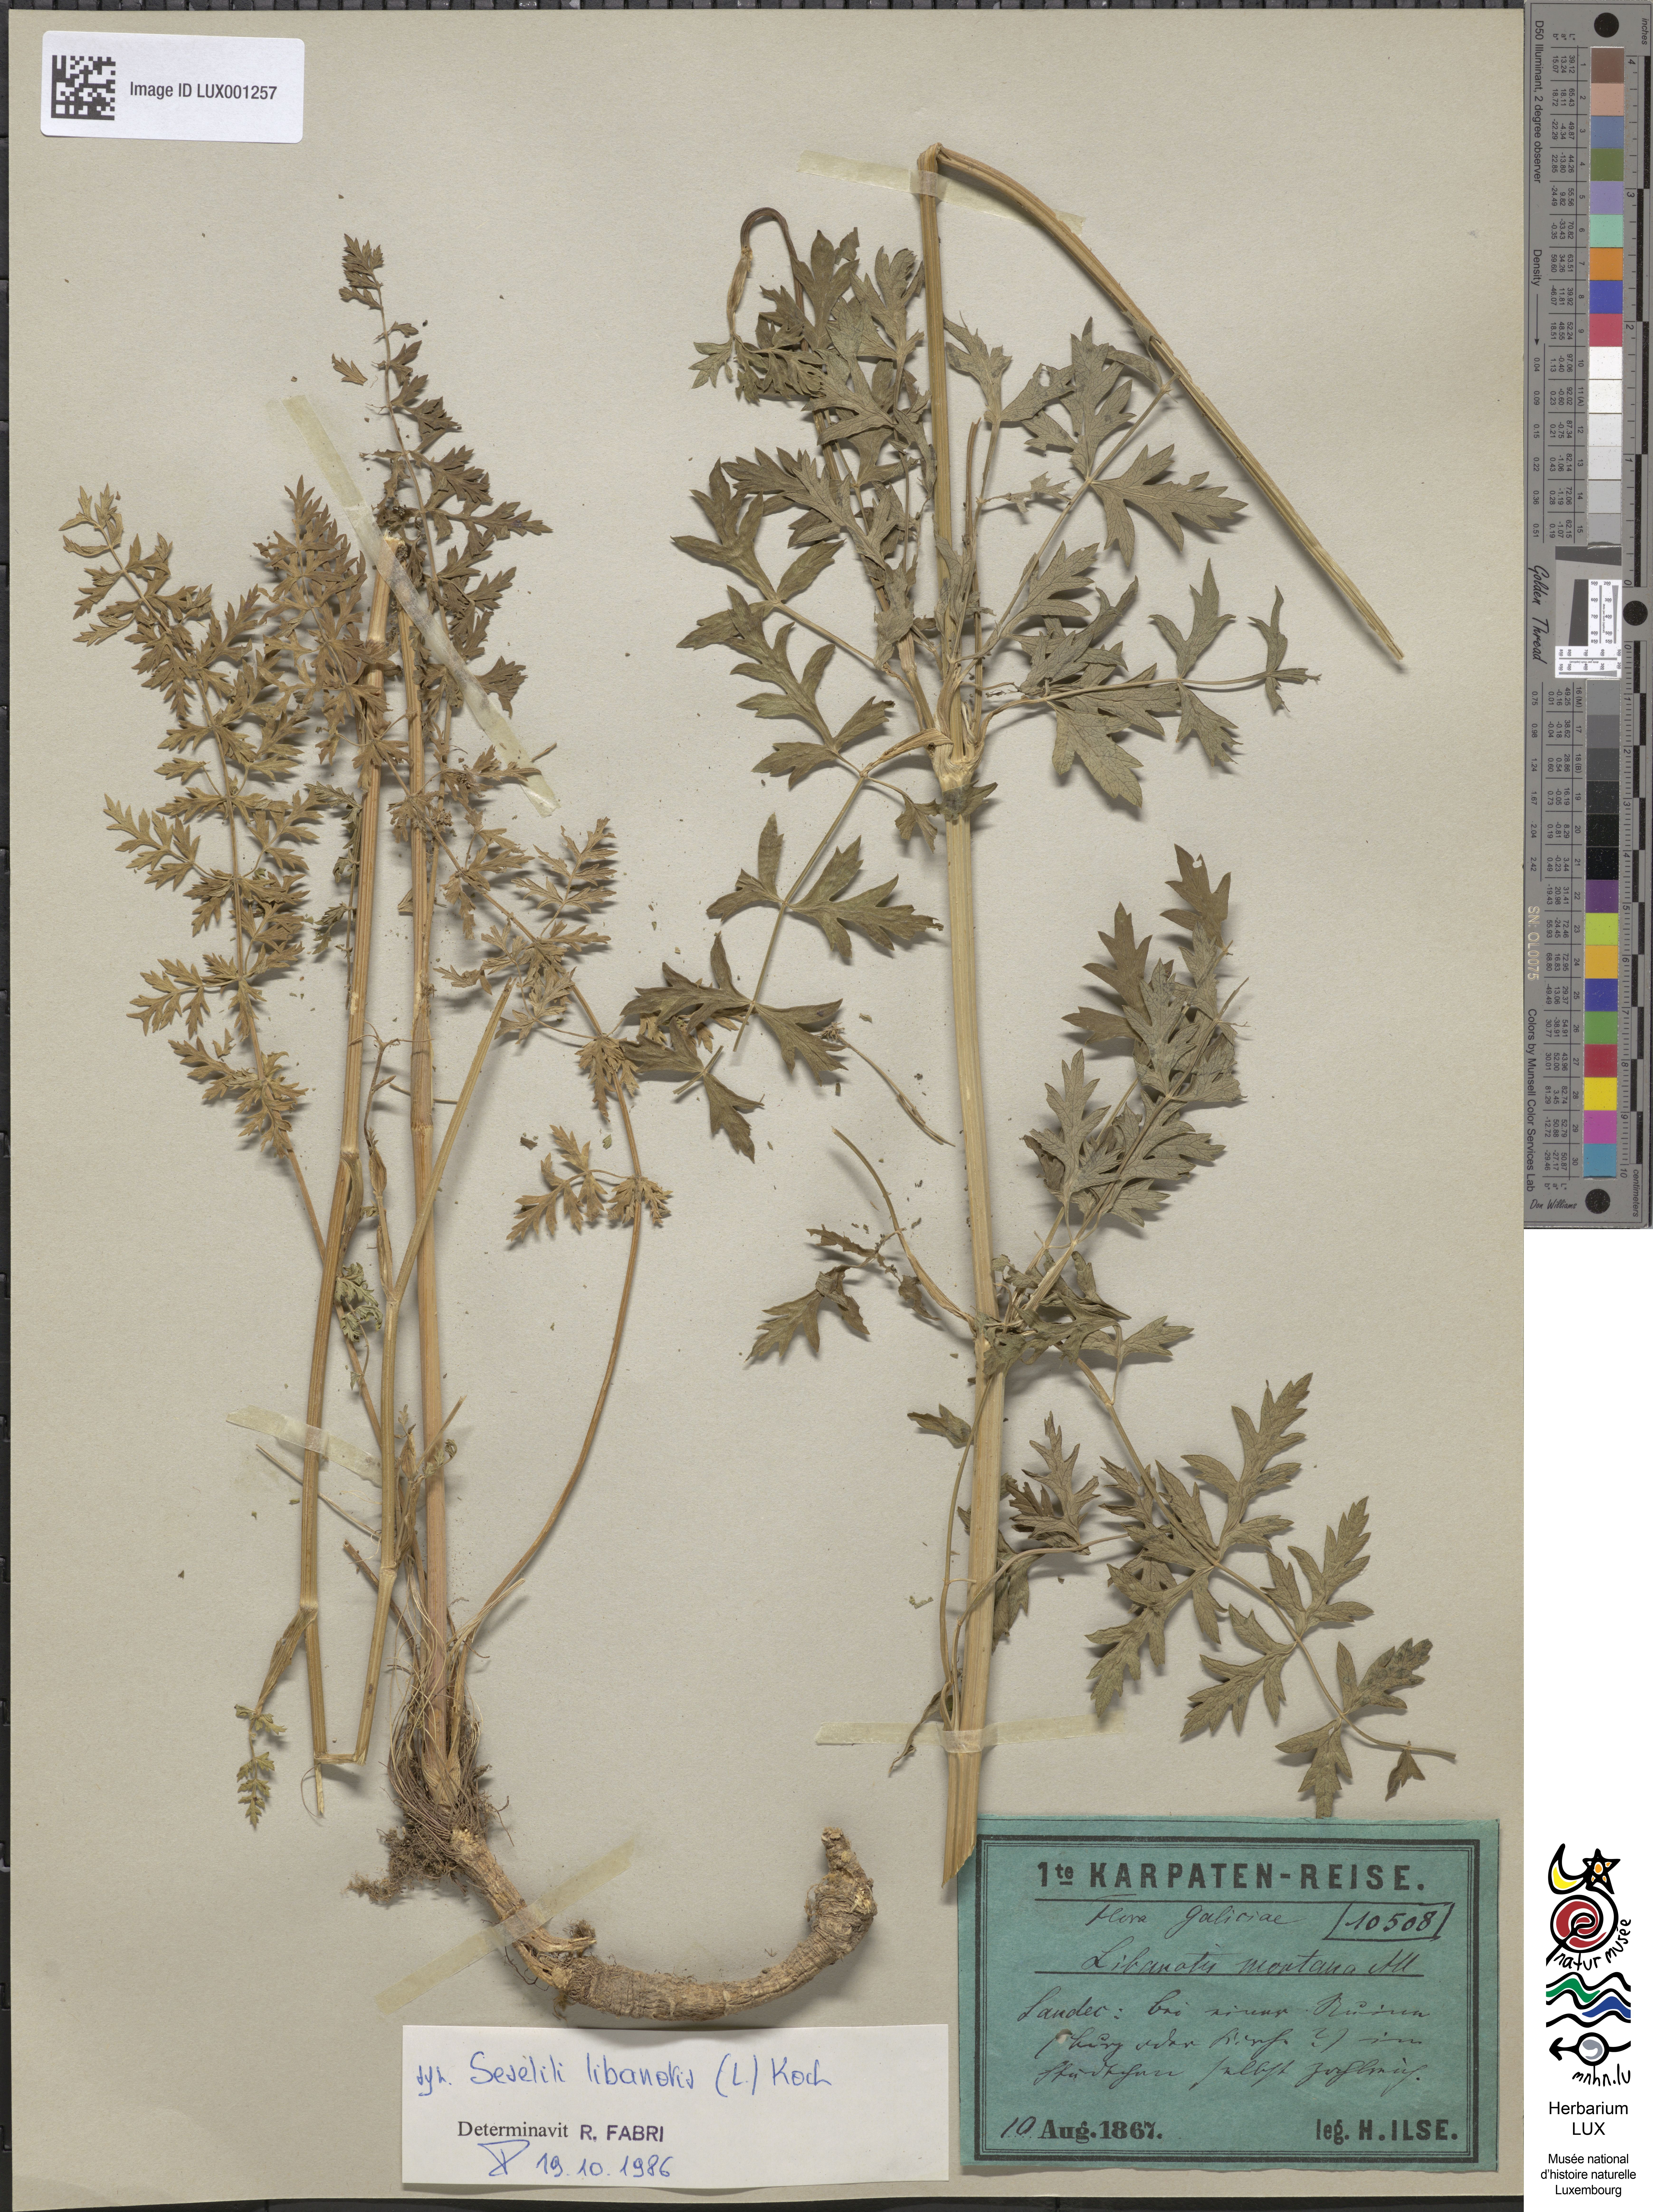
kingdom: Plantae
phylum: Tracheophyta
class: Magnoliopsida
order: Apiales
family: Apiaceae
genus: Seseli
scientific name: Seseli libanotis
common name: Mooncarrot
